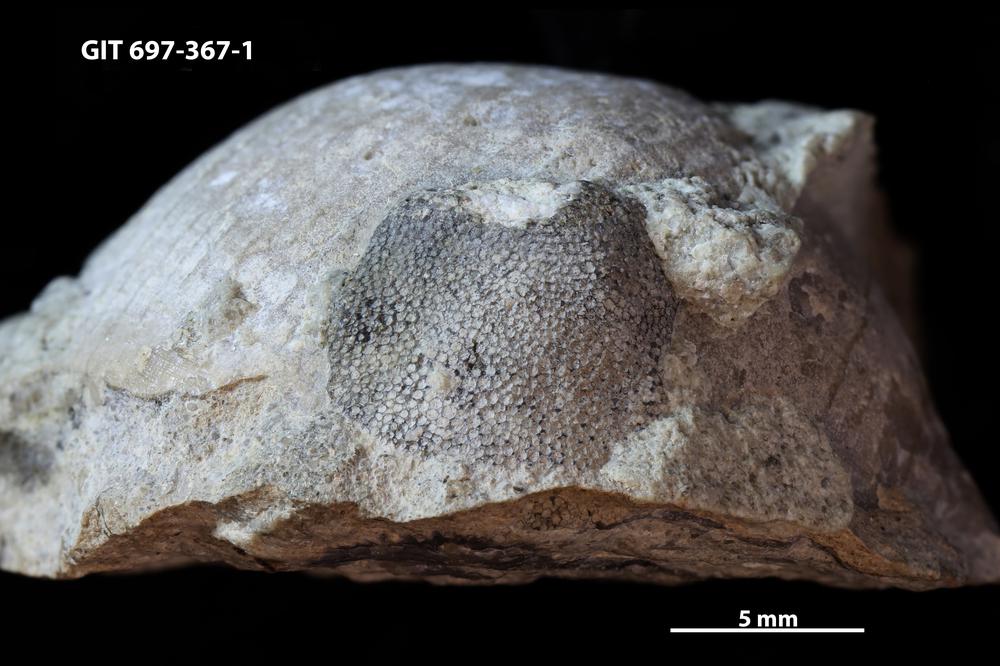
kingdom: Animalia
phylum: Bryozoa
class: Stenolaemata
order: Trepostomatida
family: Heterotrypidae
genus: Stigmatella
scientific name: Stigmatella
